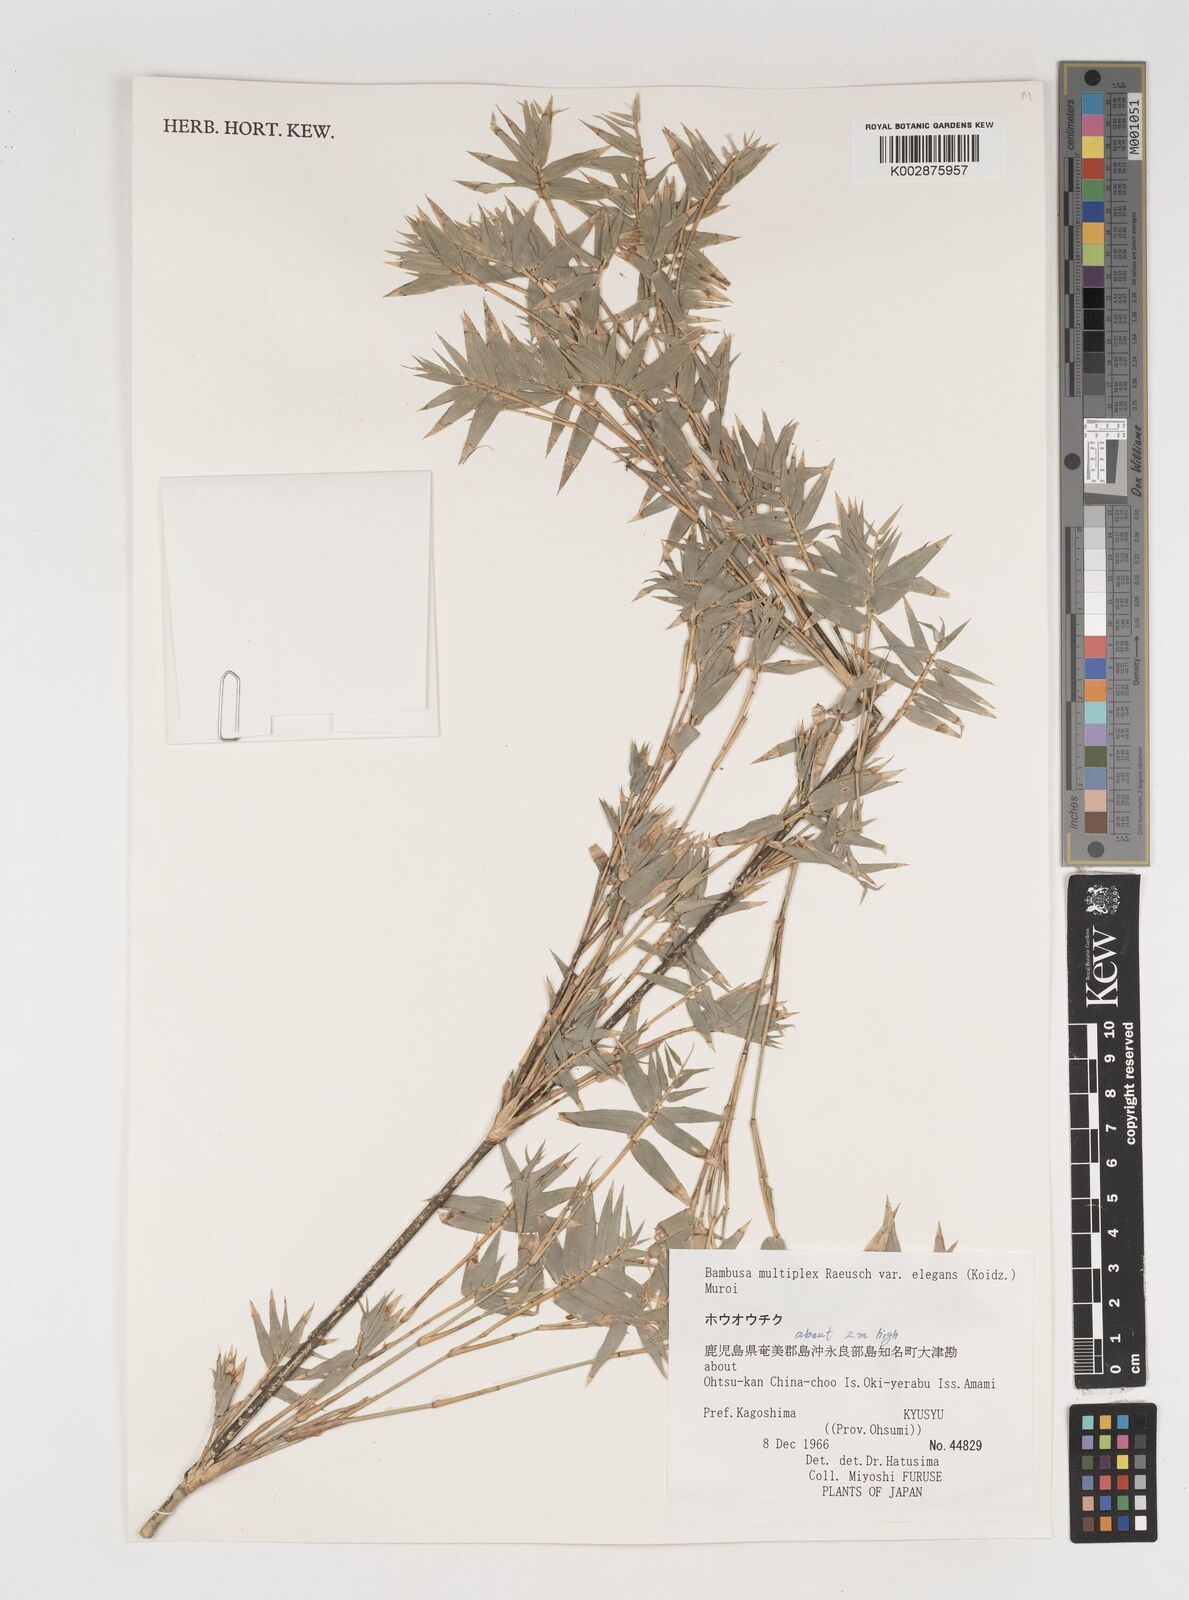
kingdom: Plantae
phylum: Tracheophyta
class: Liliopsida
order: Poales
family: Poaceae
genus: Bambusa
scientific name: Bambusa multiplex
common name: Hedge bamboo
